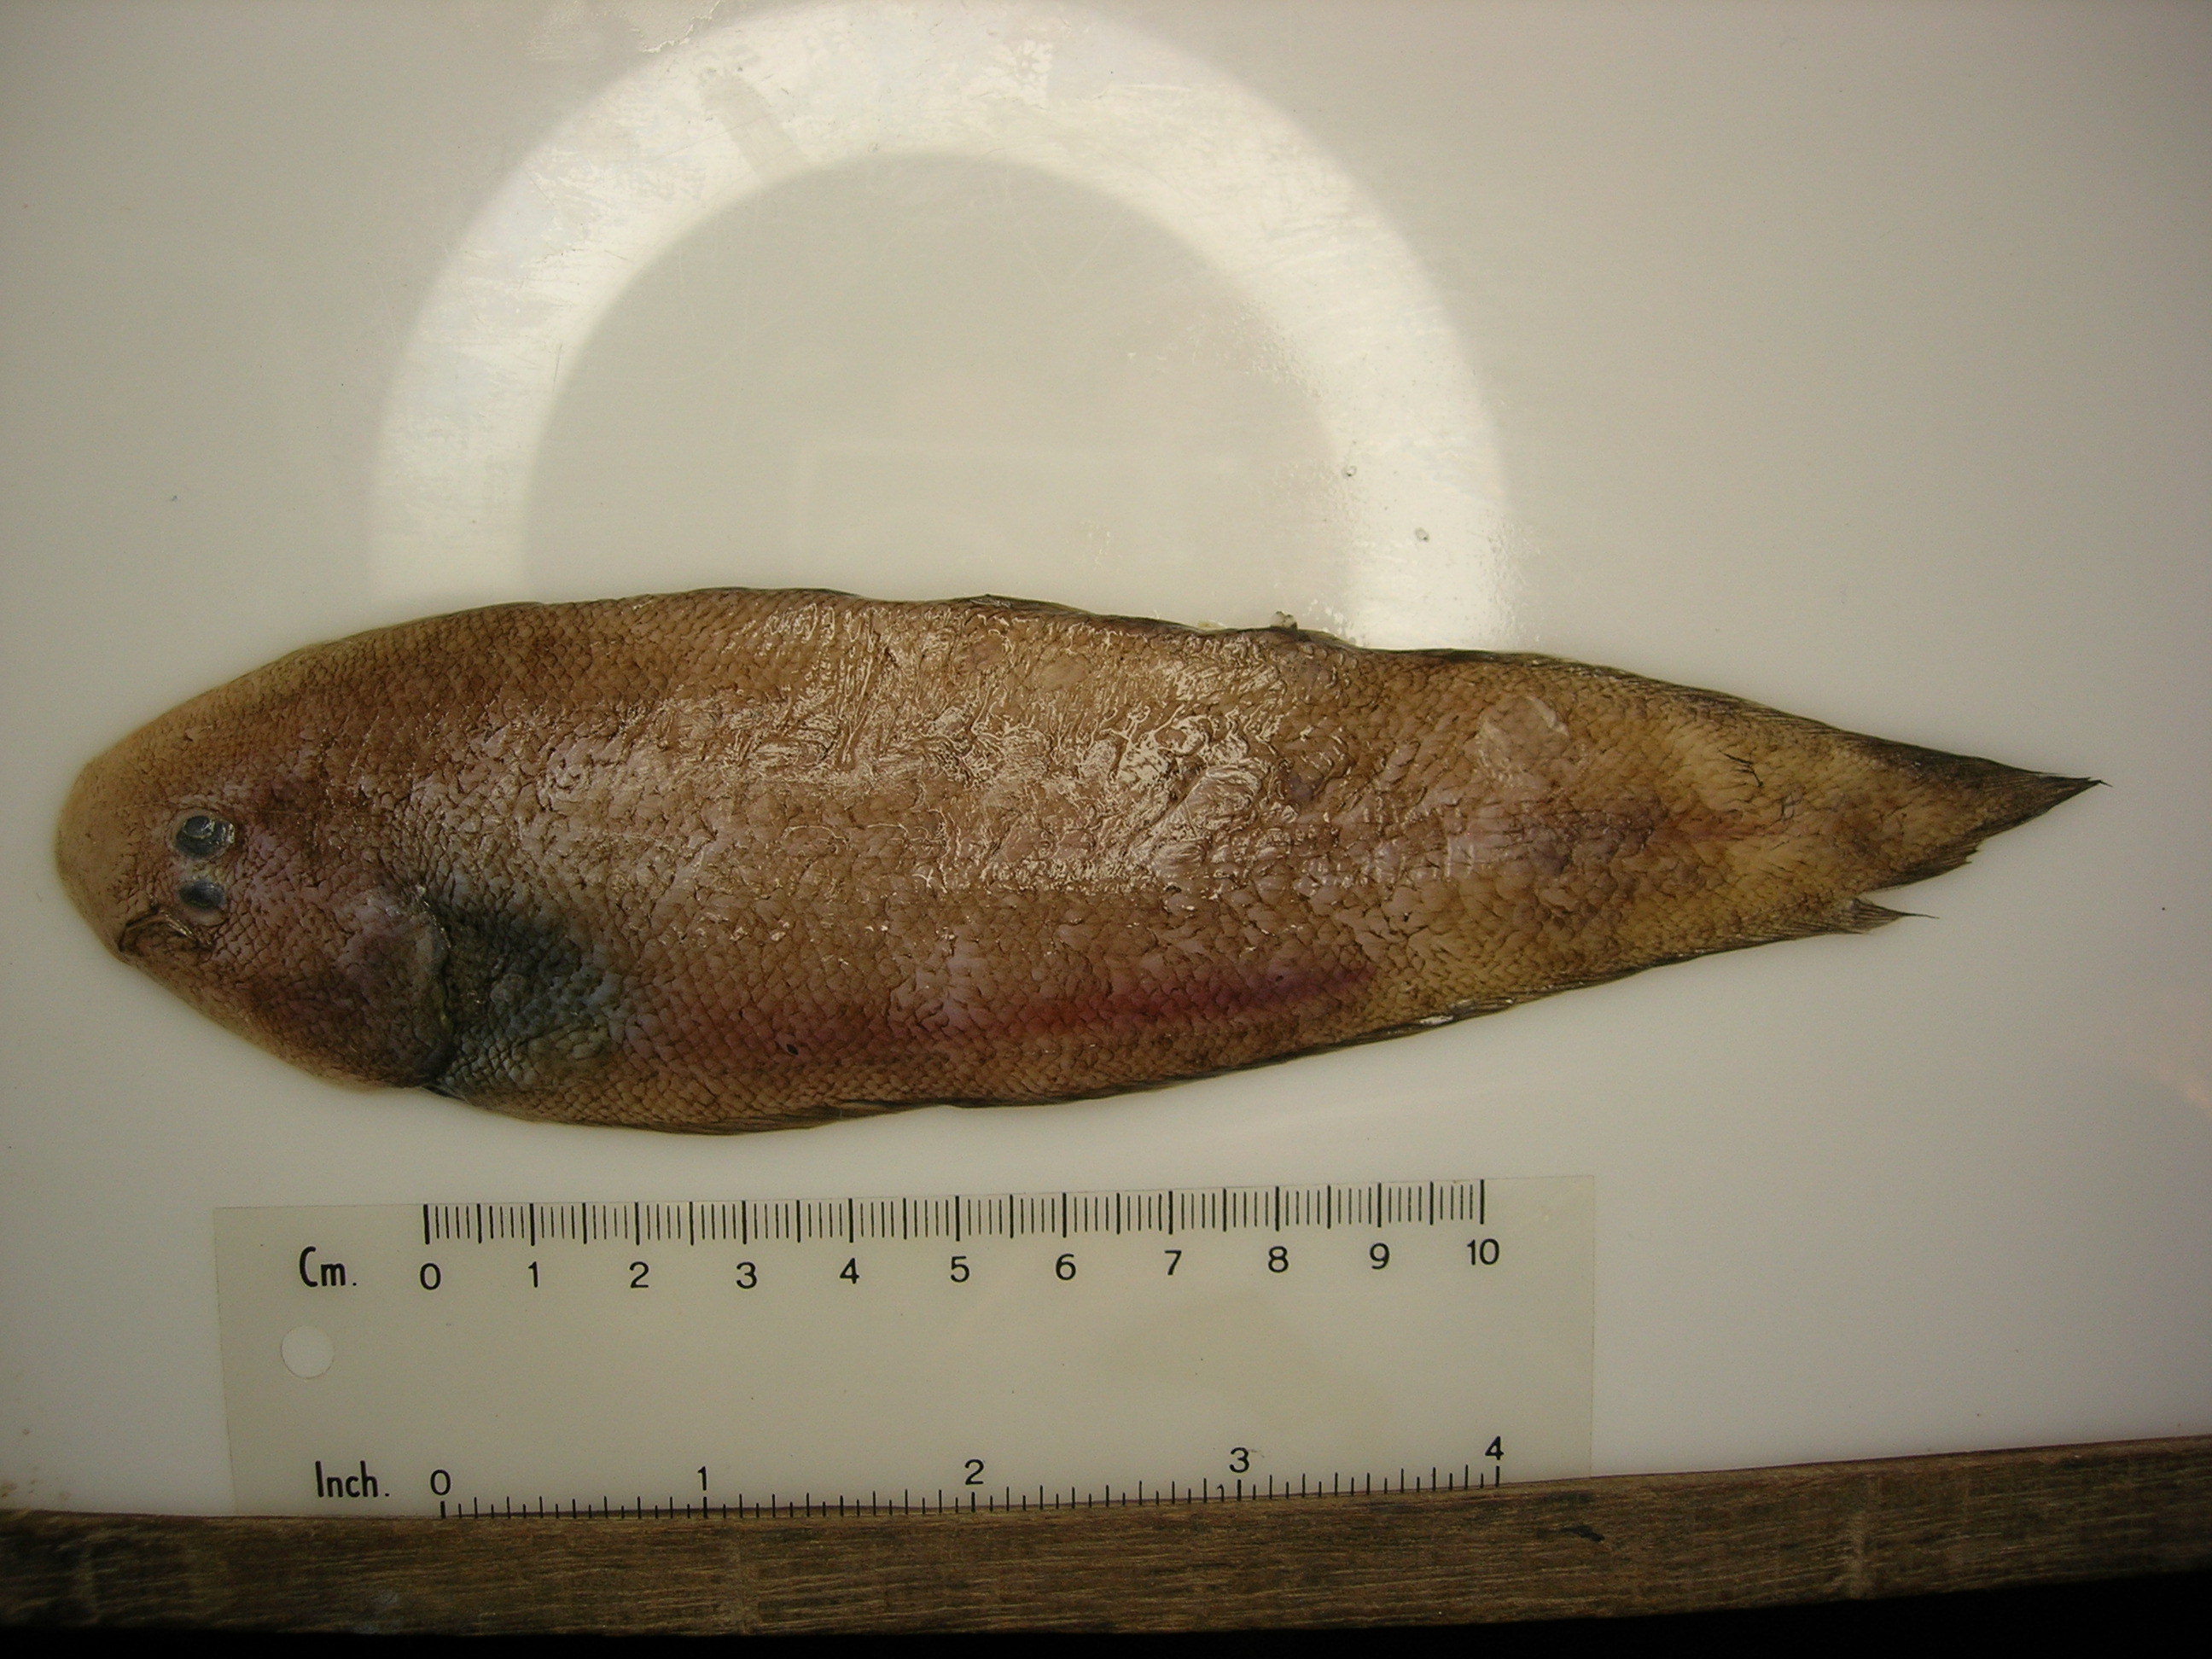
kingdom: Animalia
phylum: Chordata
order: Pleuronectiformes
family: Cynoglossidae
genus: Cynoglossus
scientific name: Cynoglossus zanzibarensis
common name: Redspotted tonguesole
